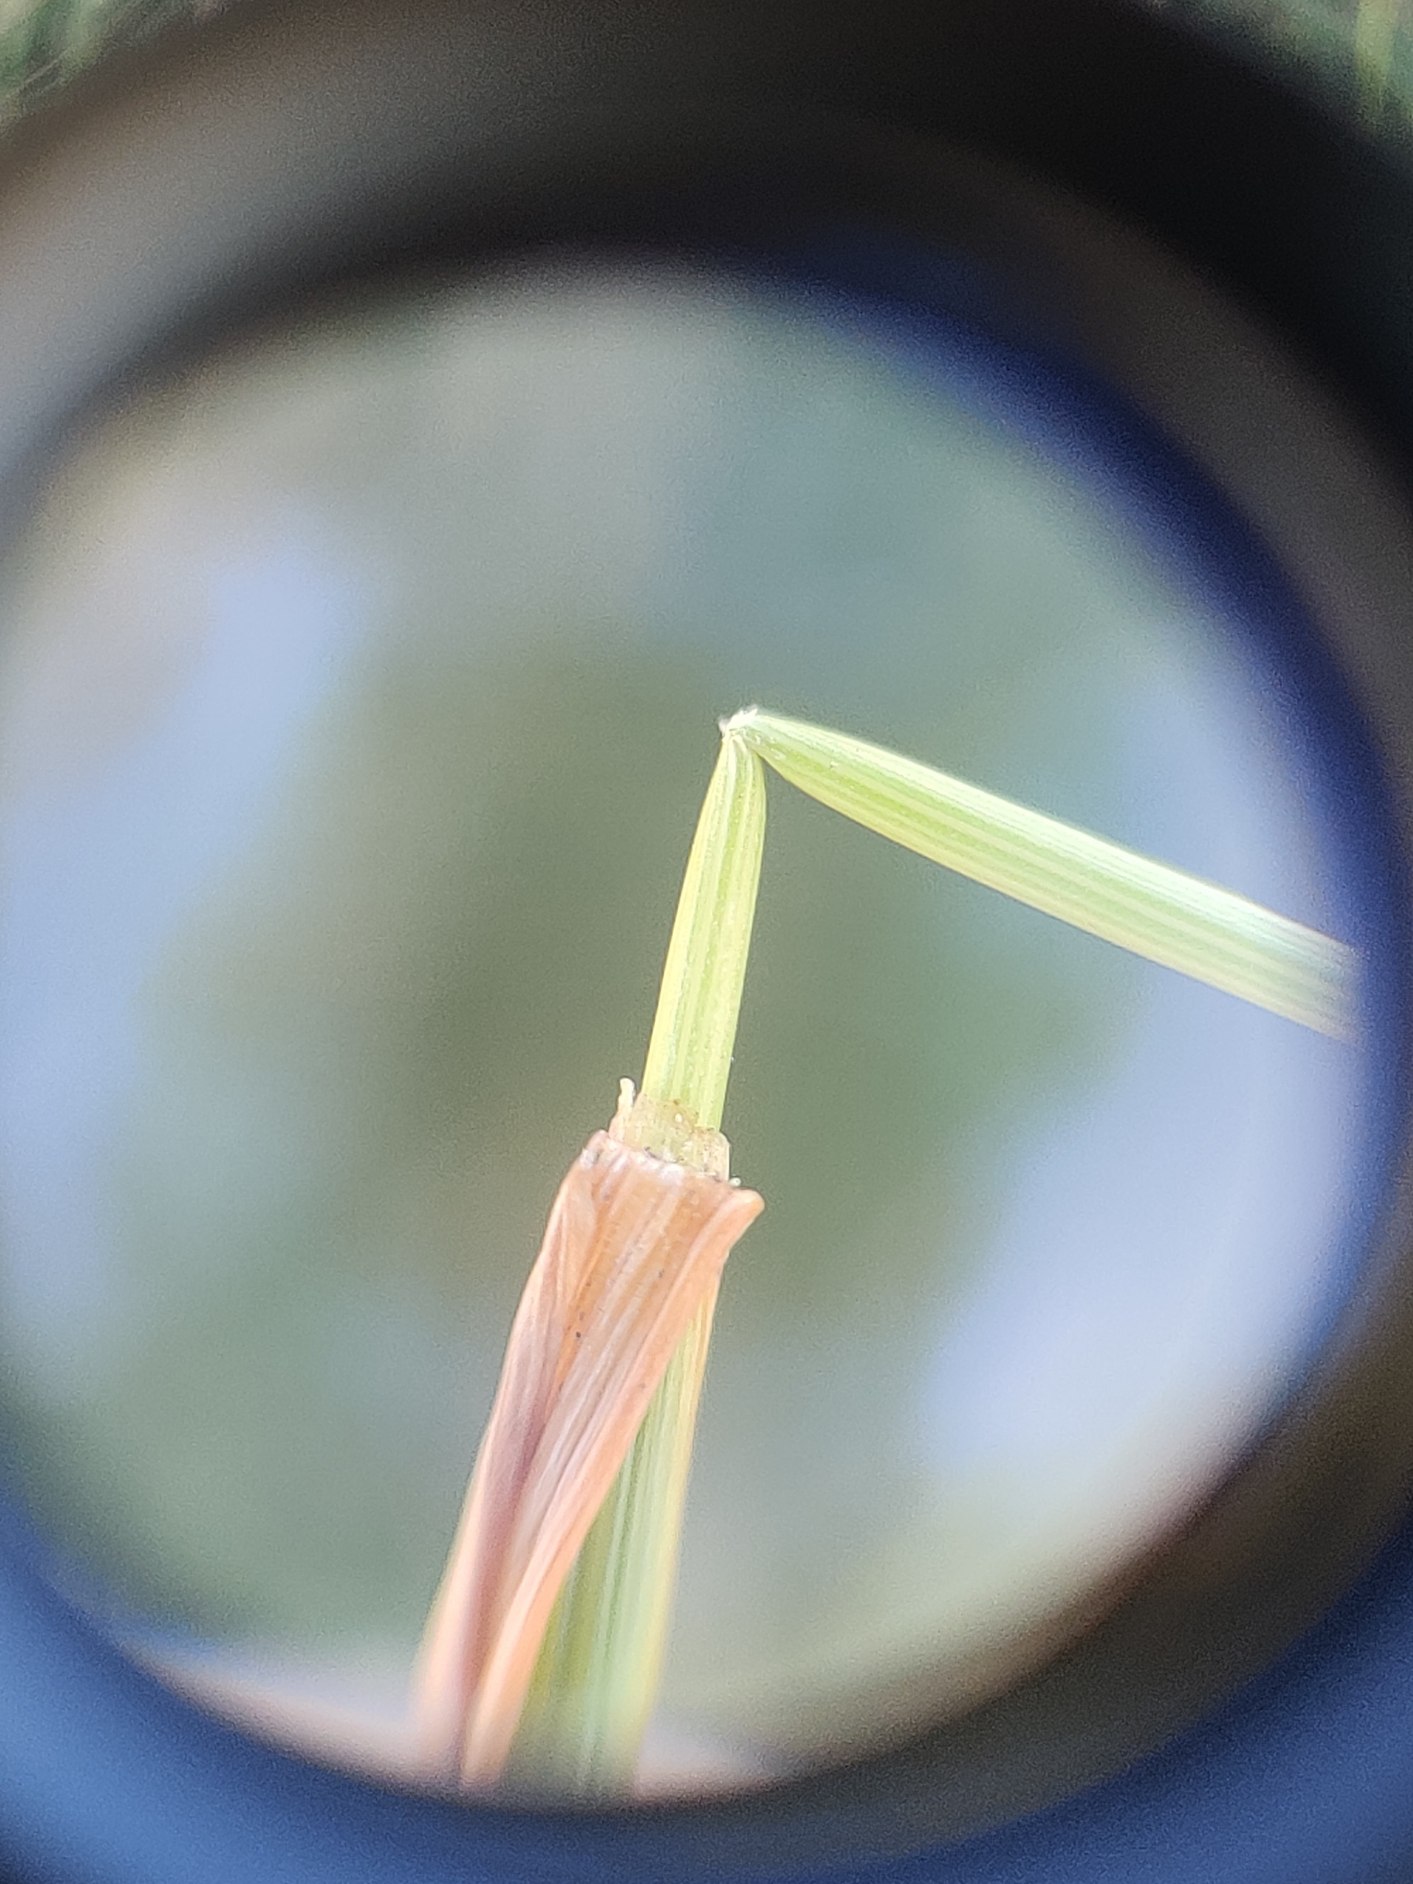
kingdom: Plantae
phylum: Tracheophyta
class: Liliopsida
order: Poales
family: Poaceae
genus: Agrostis
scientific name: Agrostis capillaris
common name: Almindelig hvene
